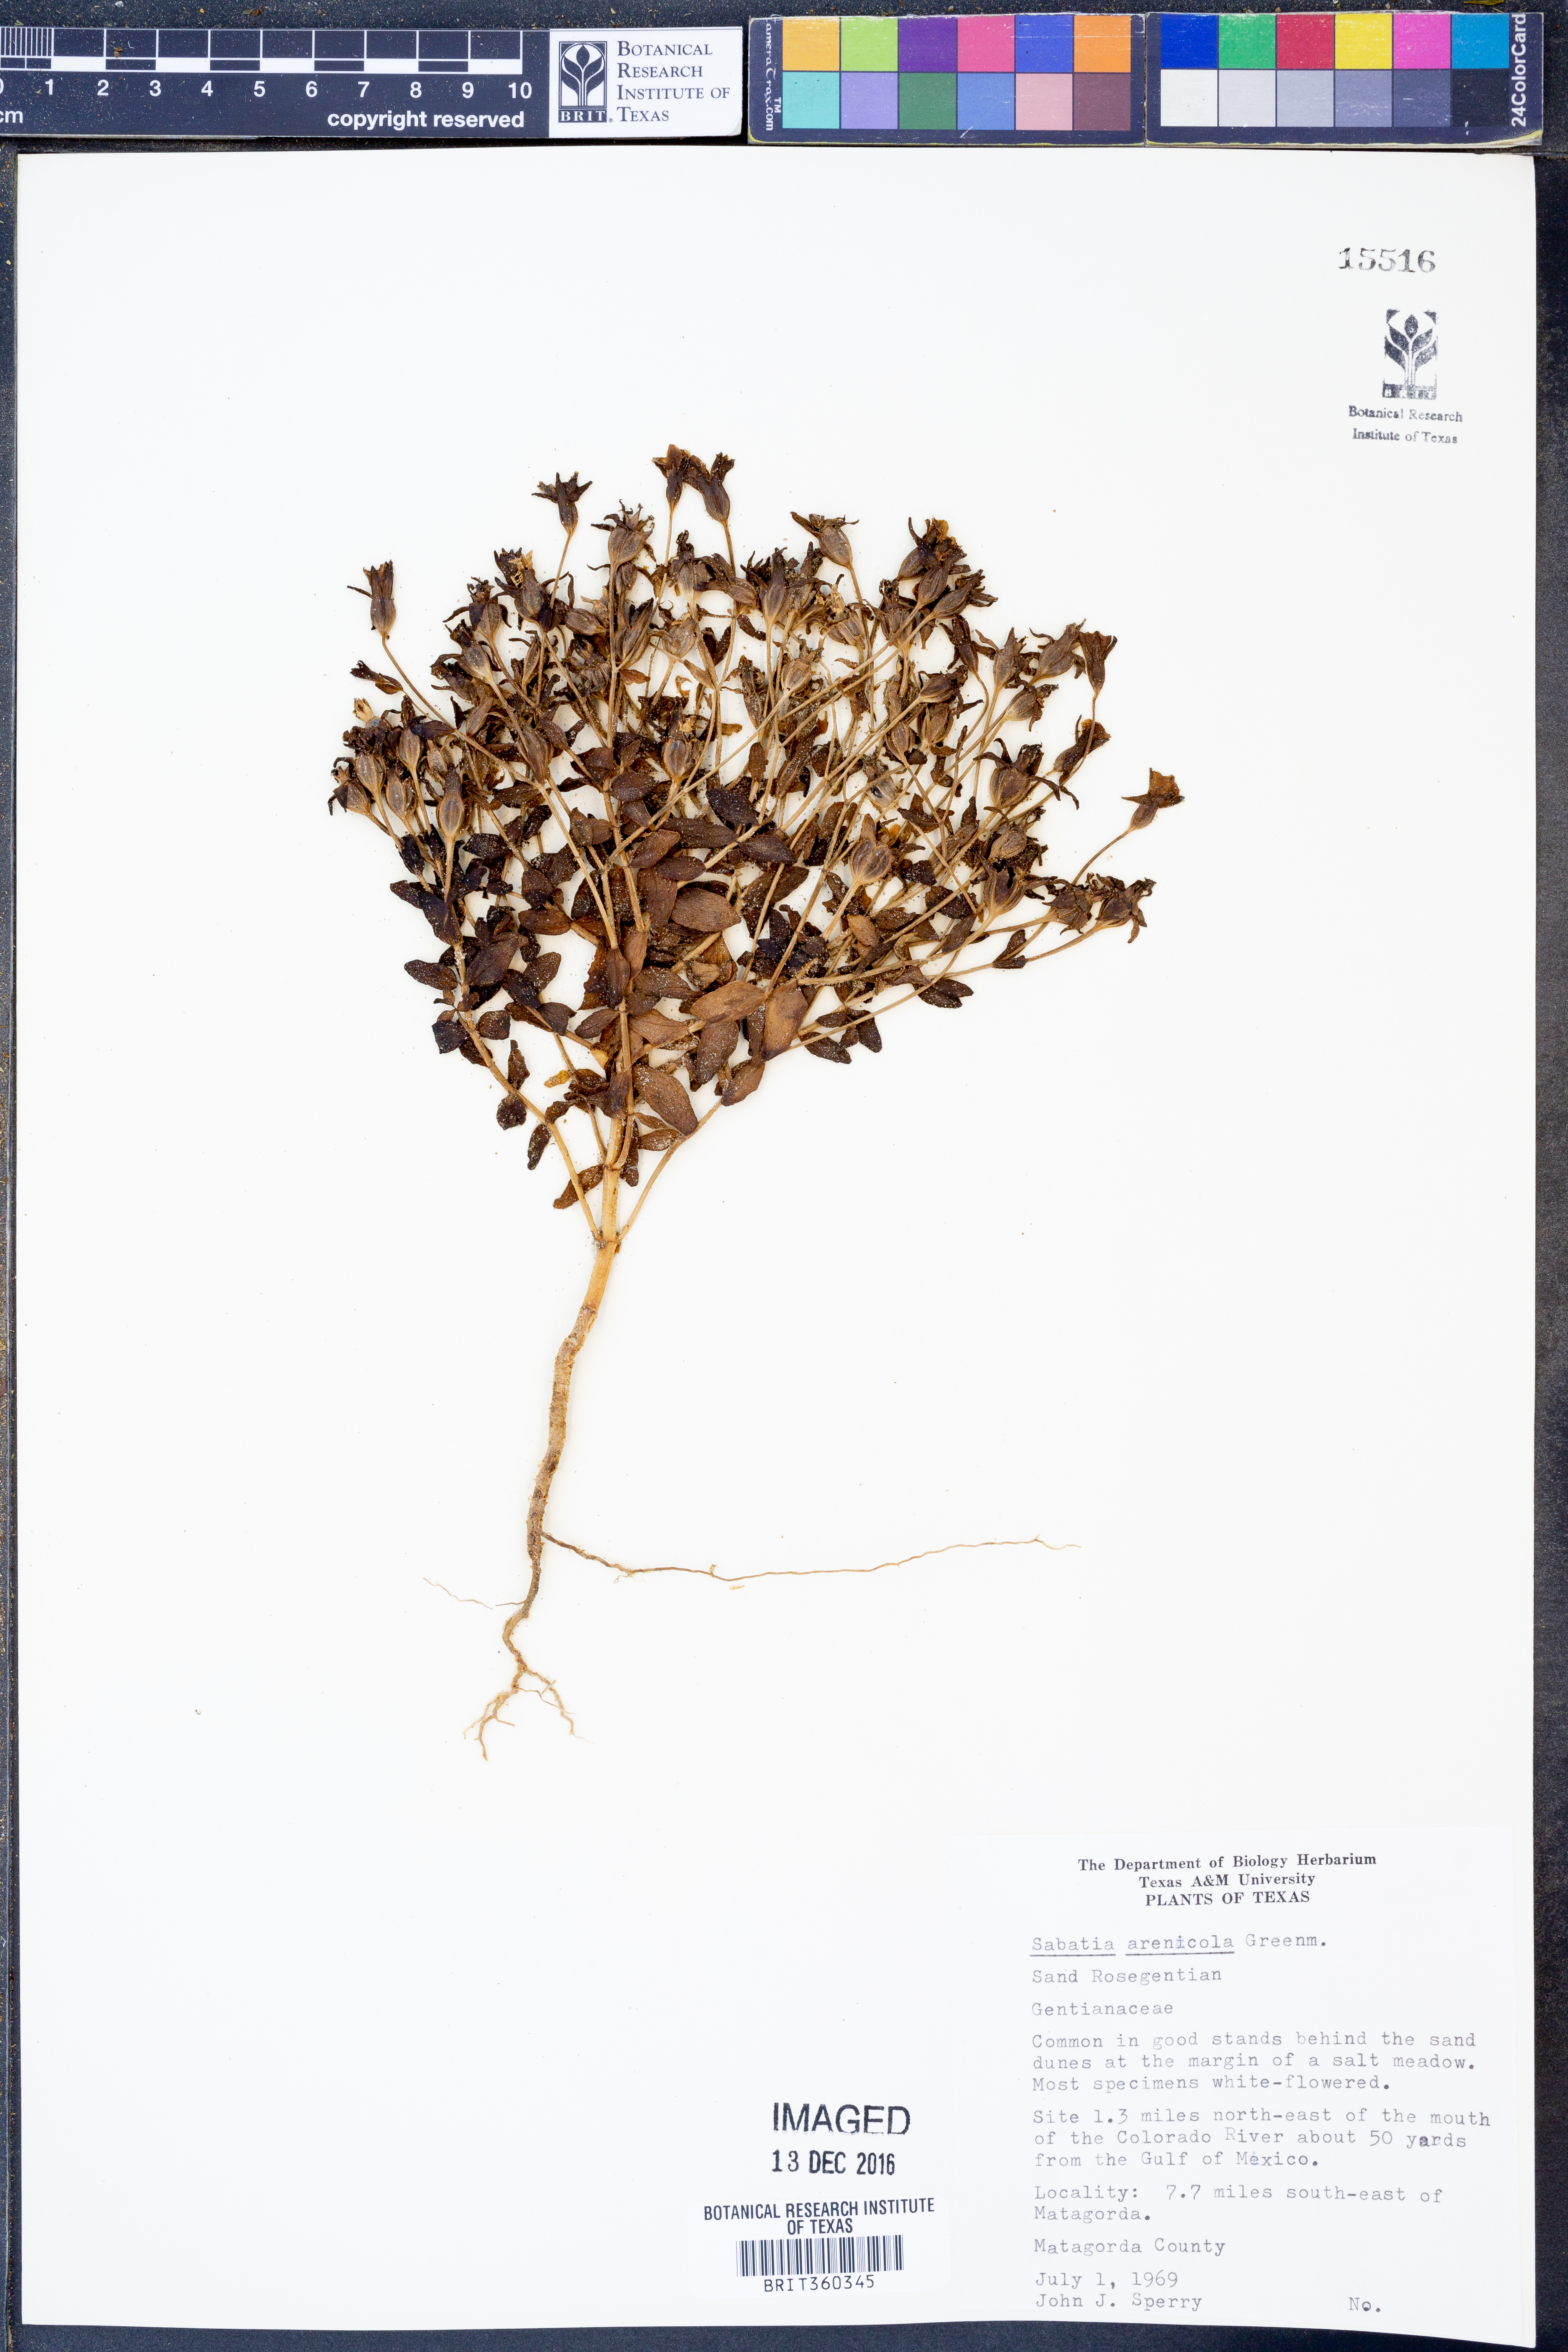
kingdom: Plantae
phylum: Tracheophyta
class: Magnoliopsida
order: Gentianales
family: Gentianaceae
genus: Sabatia
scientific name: Sabatia arenicola
